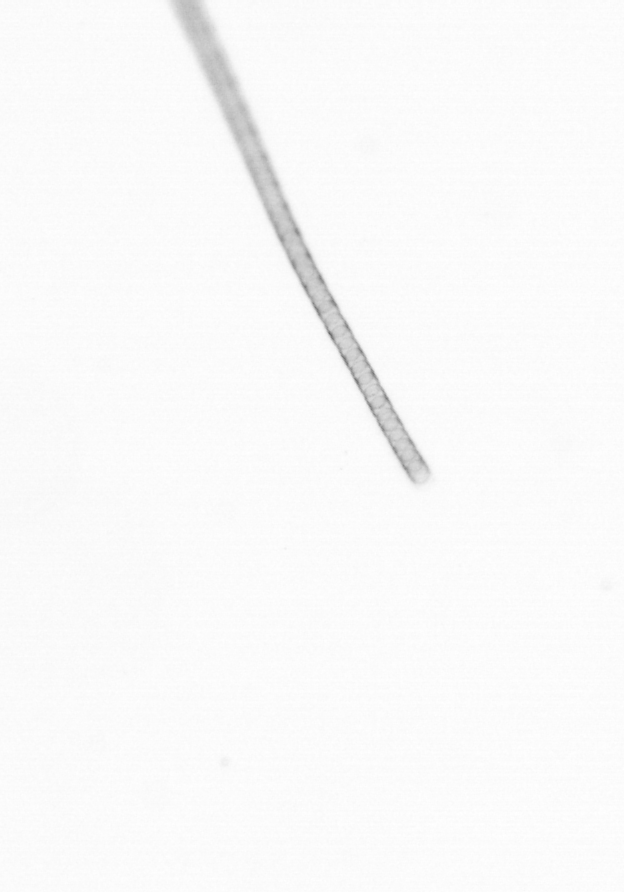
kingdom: Chromista
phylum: Ochrophyta
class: Bacillariophyceae
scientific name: Bacillariophyceae
